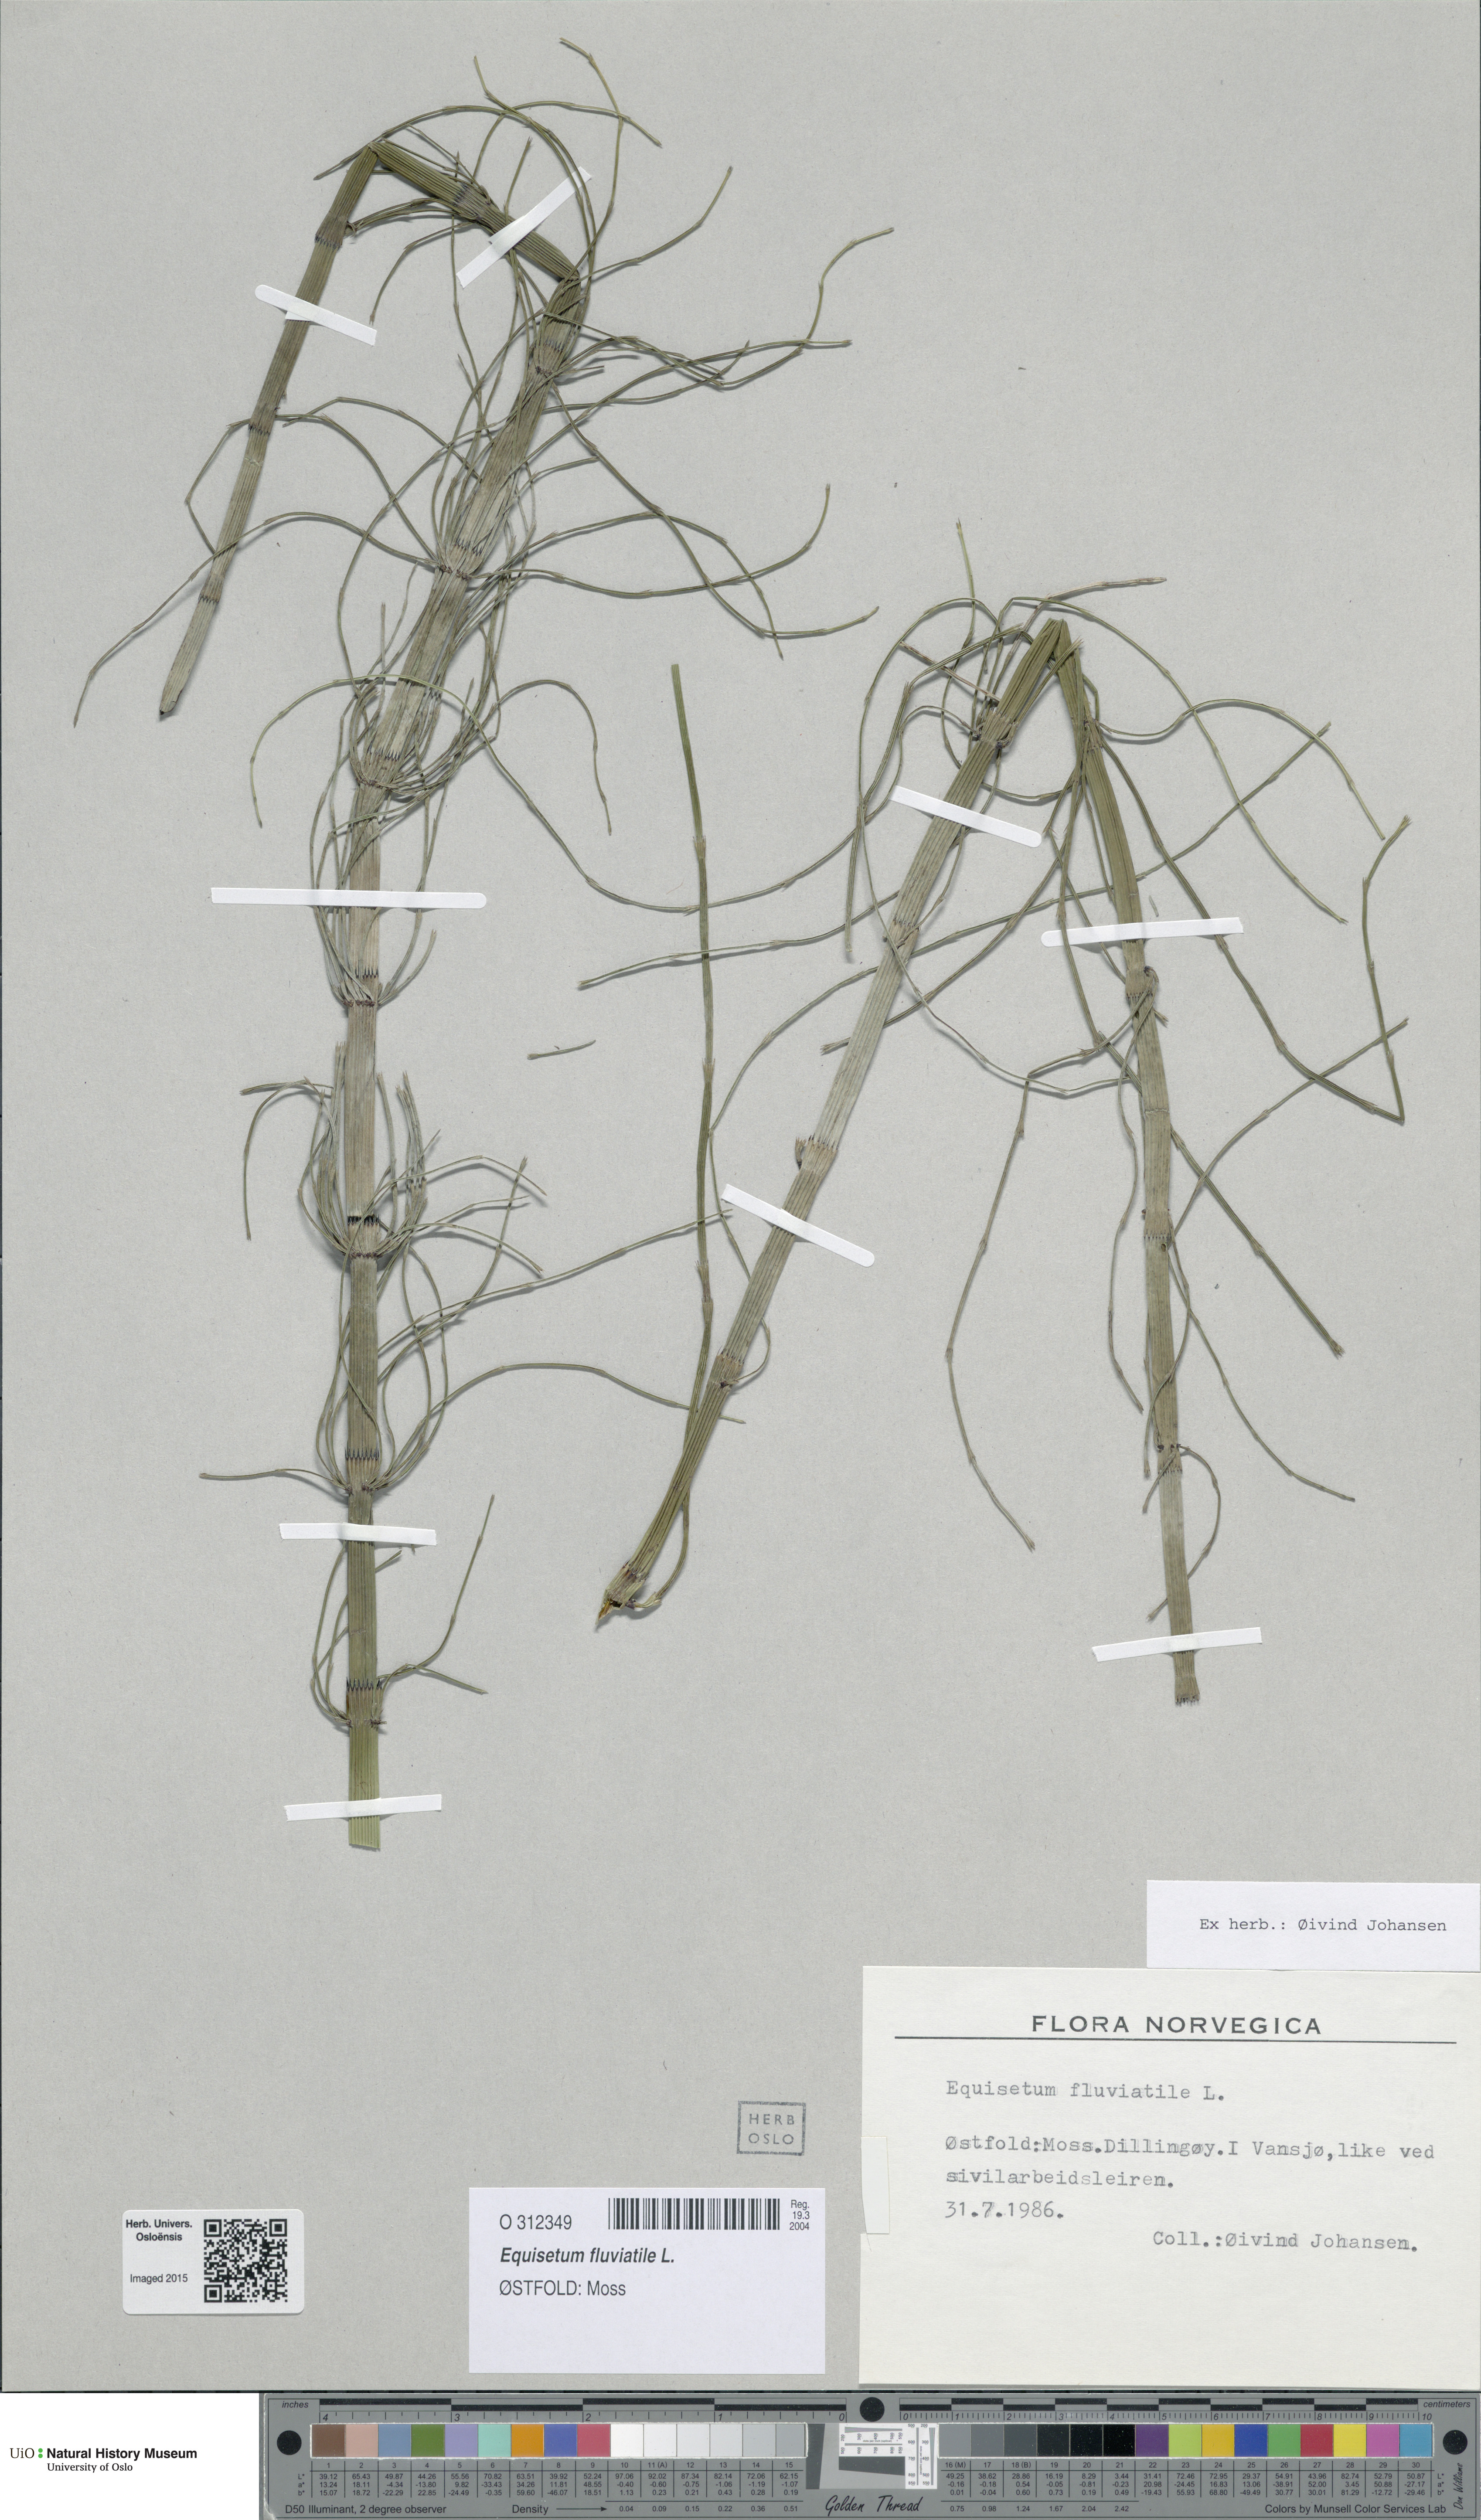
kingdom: Plantae
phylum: Tracheophyta
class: Polypodiopsida
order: Equisetales
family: Equisetaceae
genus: Equisetum
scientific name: Equisetum fluviatile
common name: Water horsetail
